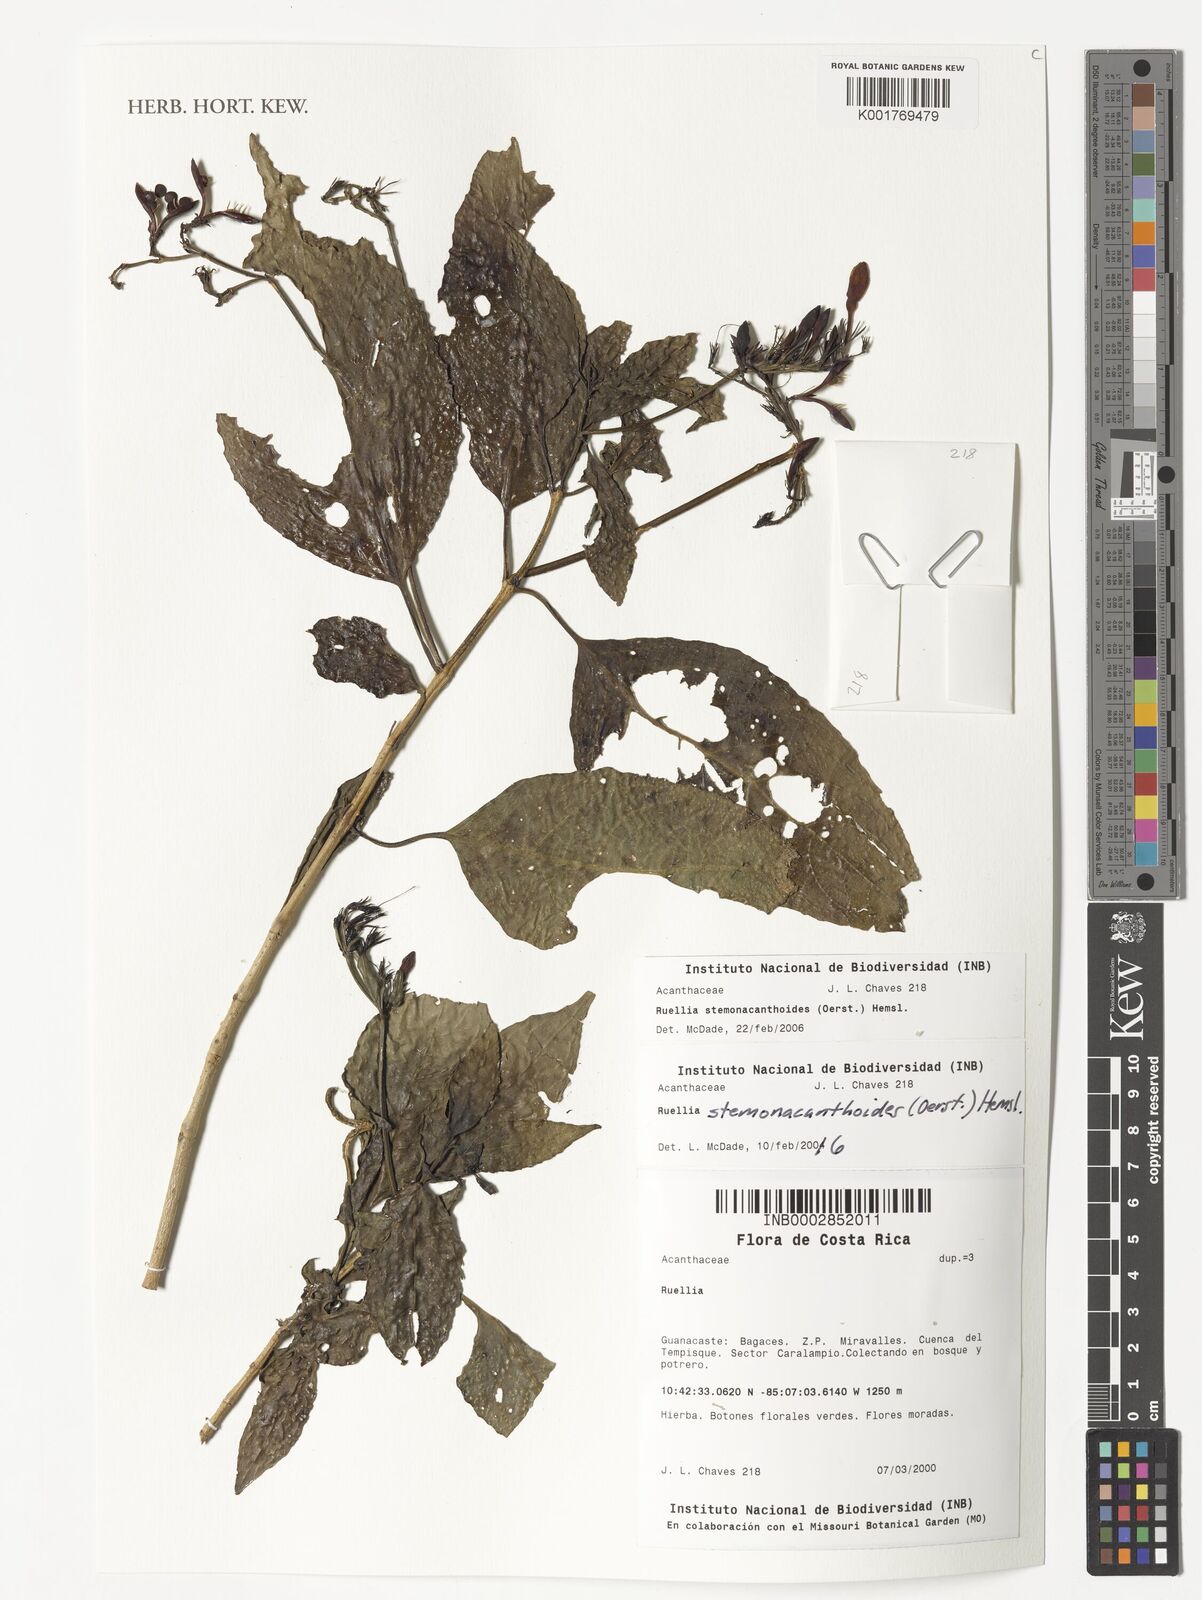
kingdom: Plantae
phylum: Tracheophyta
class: Magnoliopsida
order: Lamiales
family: Acanthaceae
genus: Ruellia
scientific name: Ruellia stemonacanthoides
